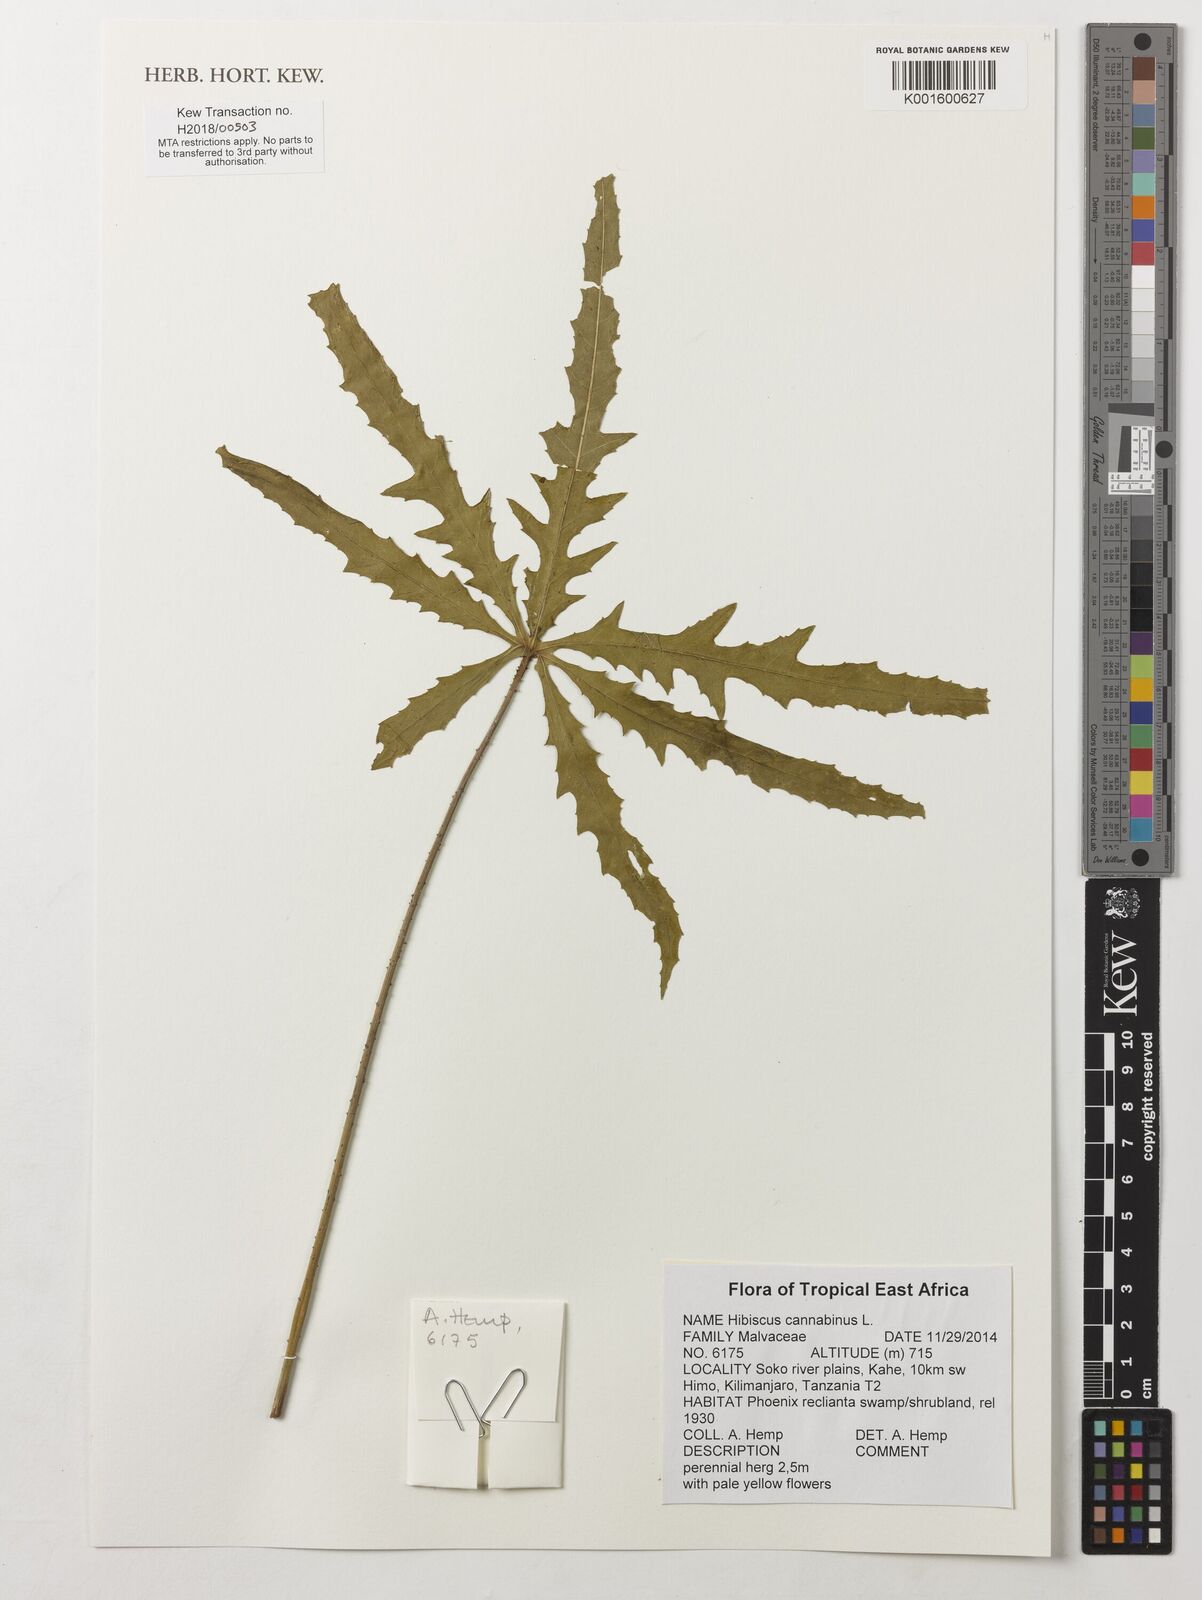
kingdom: Plantae
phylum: Tracheophyta
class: Magnoliopsida
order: Malvales
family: Malvaceae
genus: Hibiscus
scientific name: Hibiscus cannabinus
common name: Brown indianhemp
